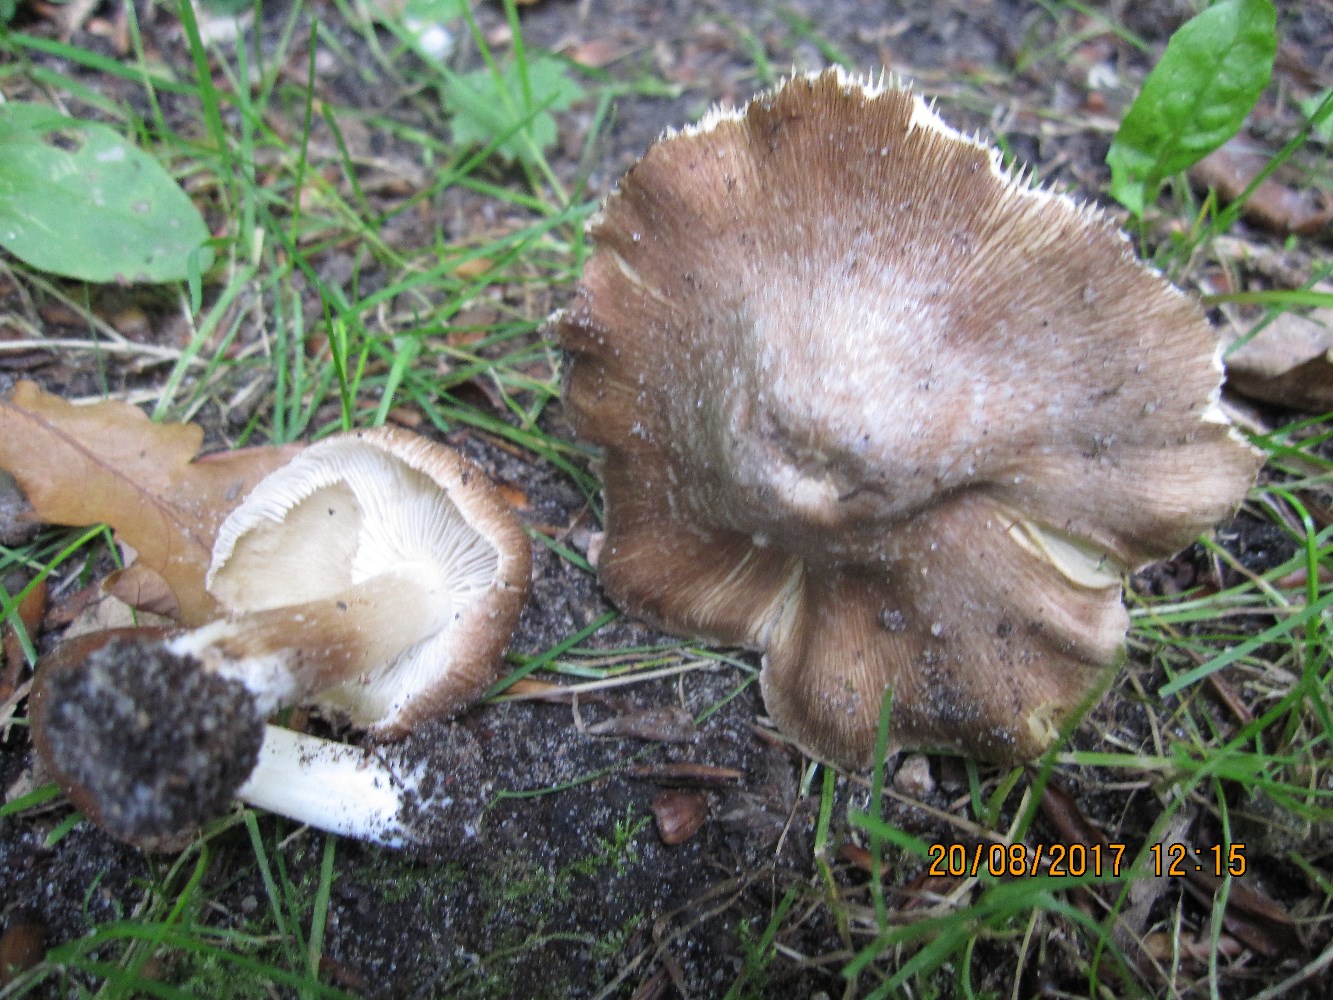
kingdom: Fungi
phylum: Basidiomycota
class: Agaricomycetes
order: Agaricales
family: Inocybaceae
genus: Inosperma
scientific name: Inosperma
